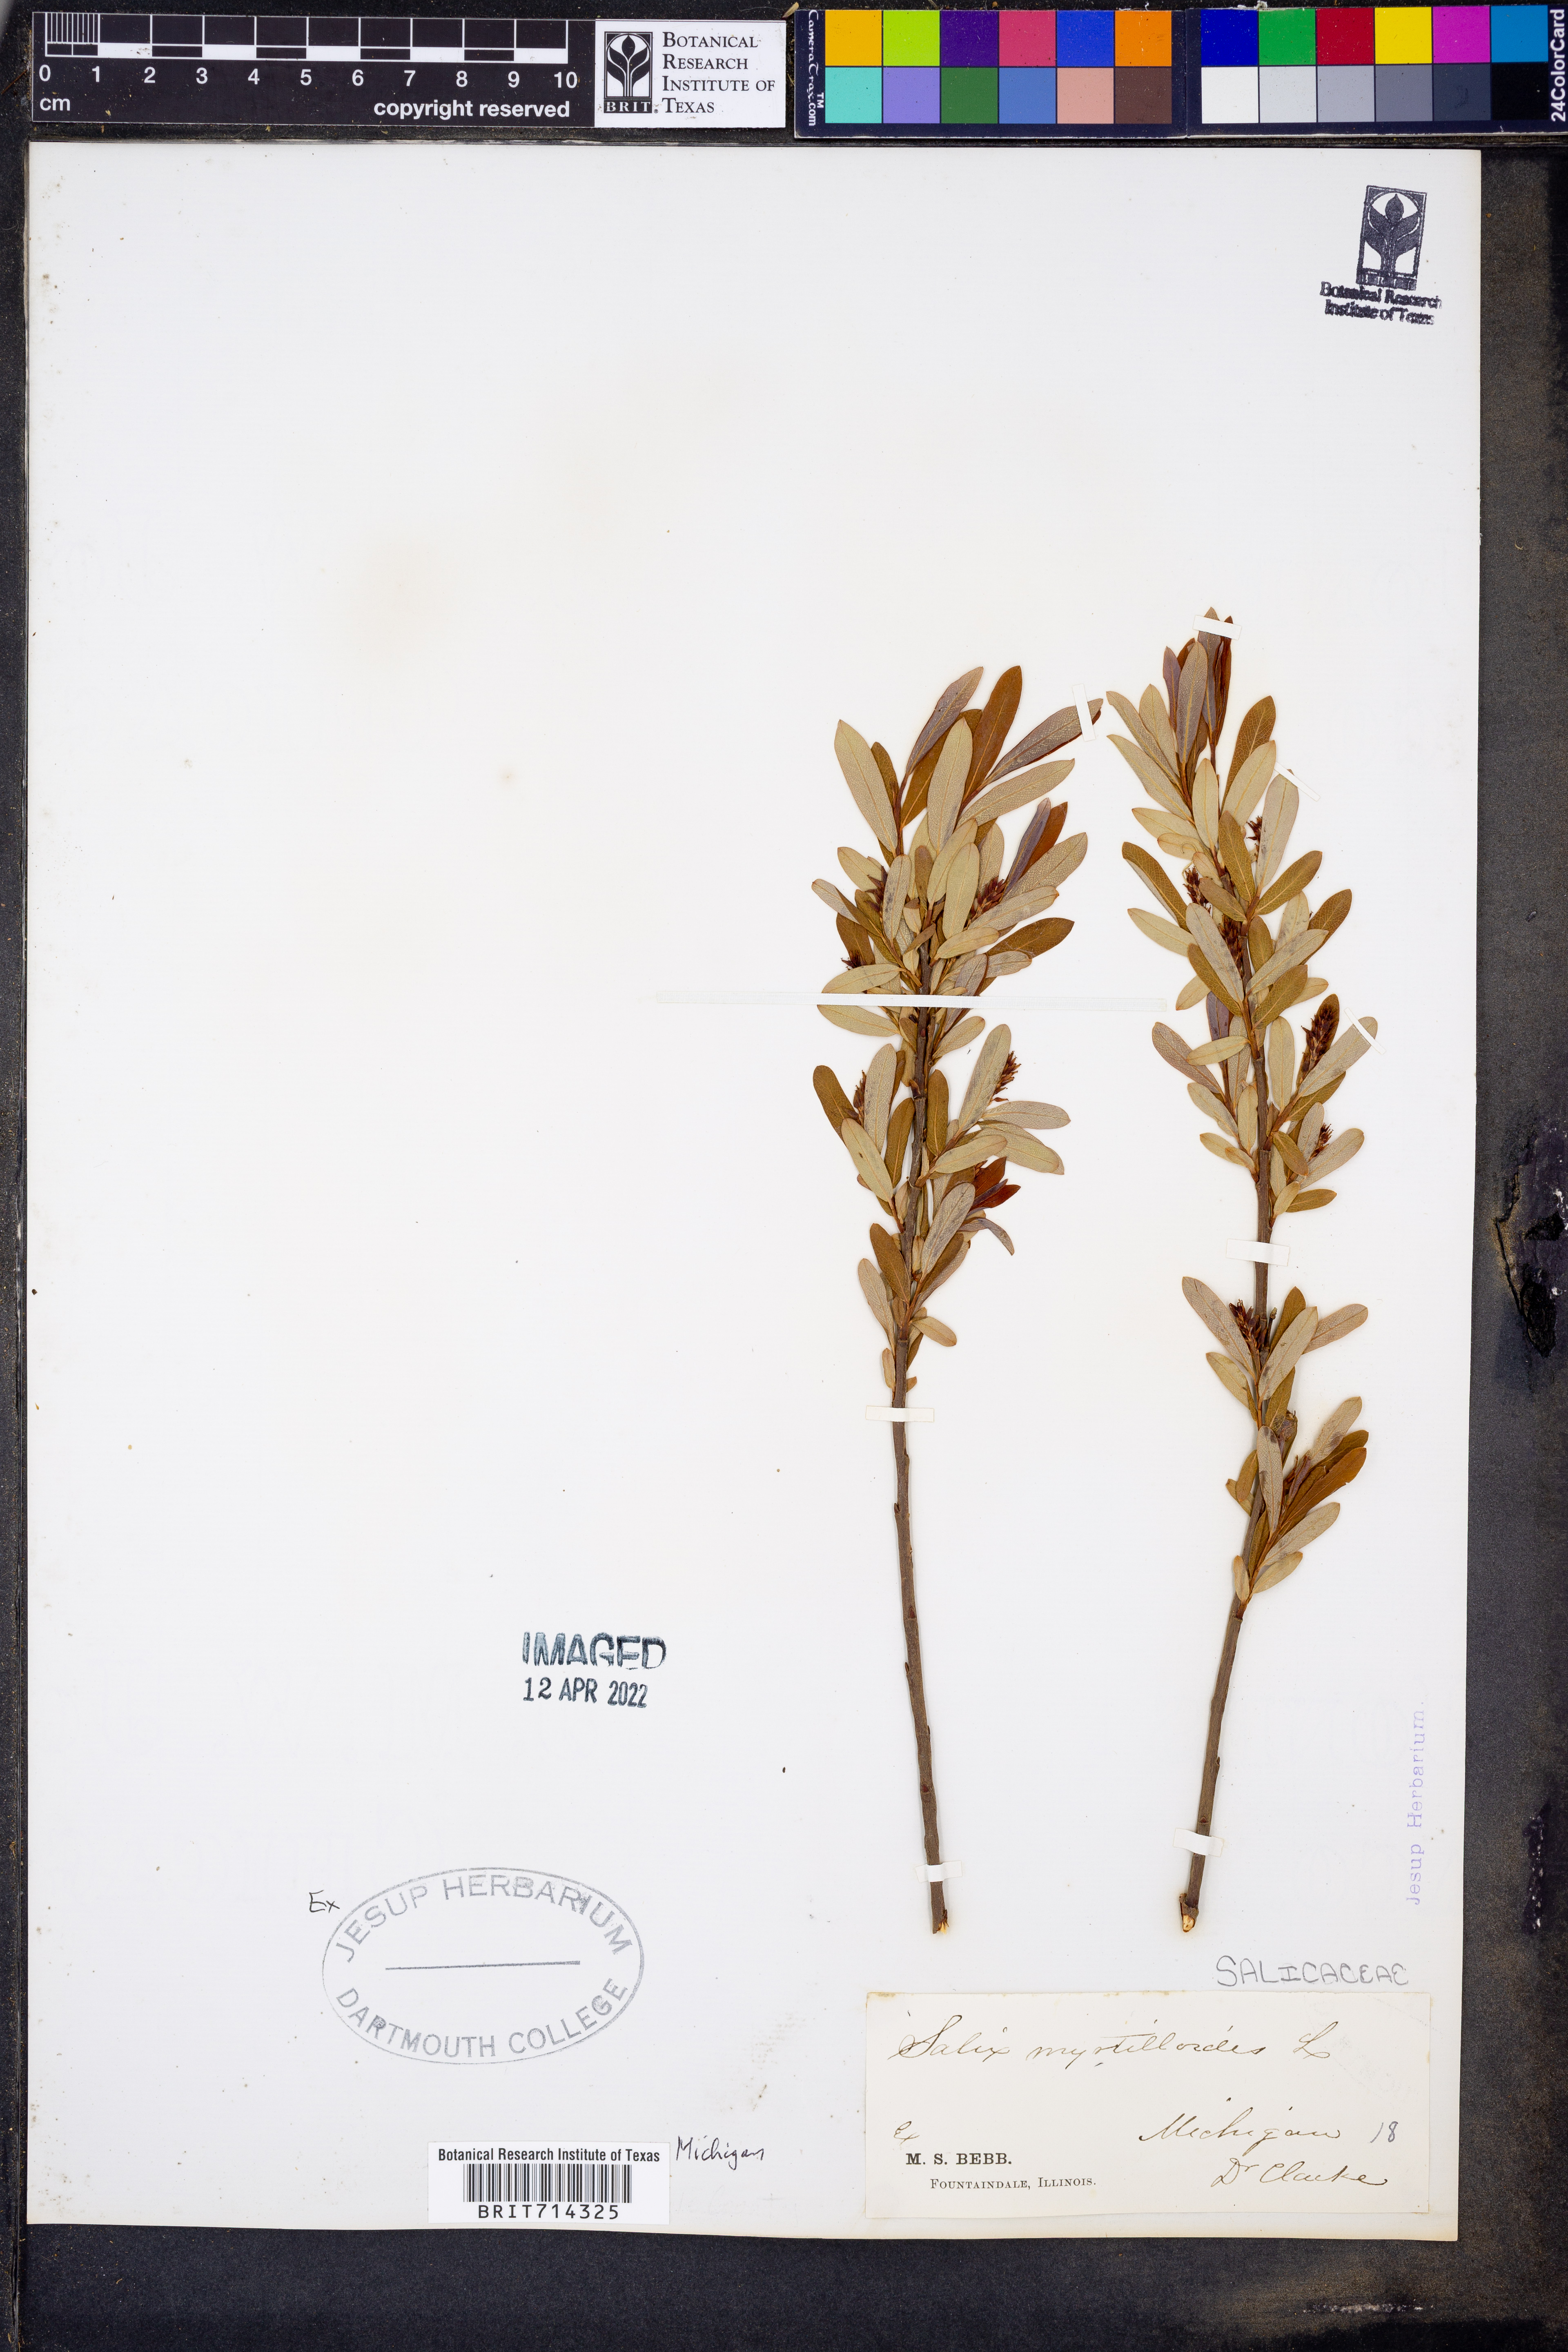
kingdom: Plantae
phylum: Tracheophyta
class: Magnoliopsida
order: Malpighiales
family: Salicaceae
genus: Salix
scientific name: Salix
